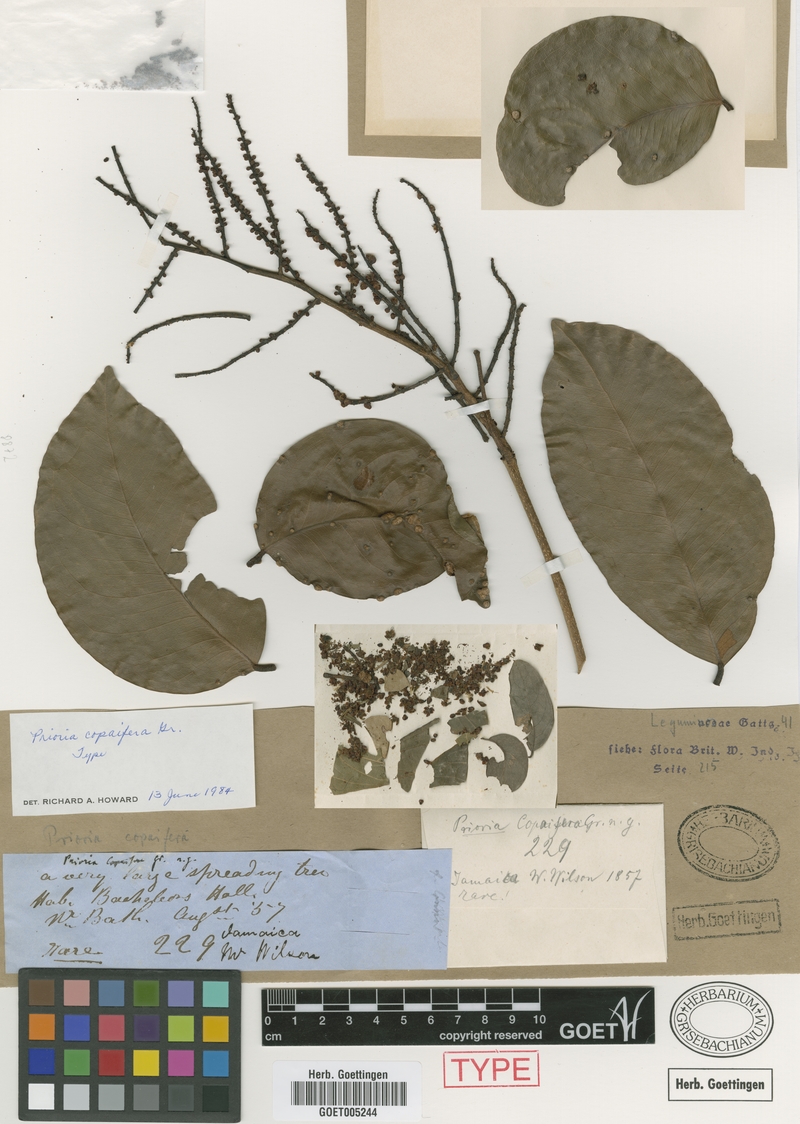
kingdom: Plantae
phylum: Tracheophyta
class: Magnoliopsida
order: Fabales
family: Fabaceae
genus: Prioria
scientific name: Prioria copaifera
